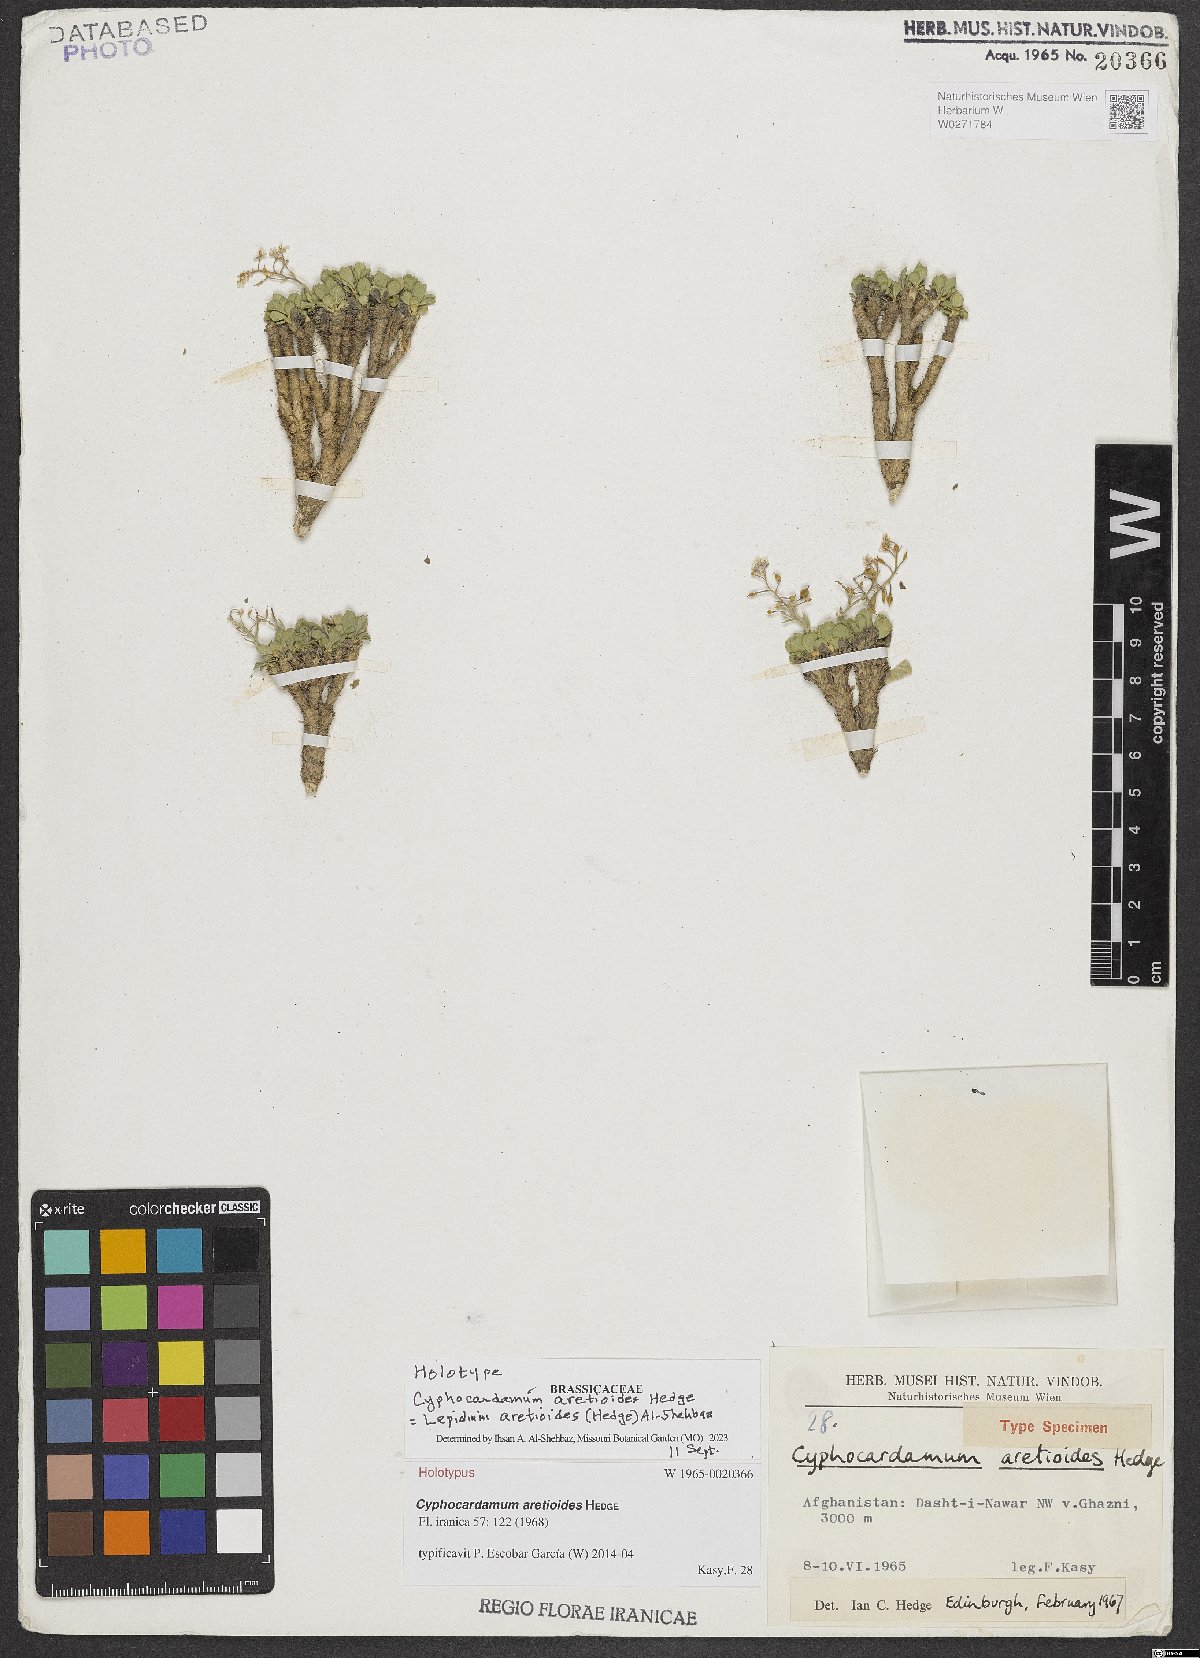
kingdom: Plantae
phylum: Tracheophyta
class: Magnoliopsida
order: Brassicales
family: Brassicaceae
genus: Cyphocardamum
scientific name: Cyphocardamum aretioides
